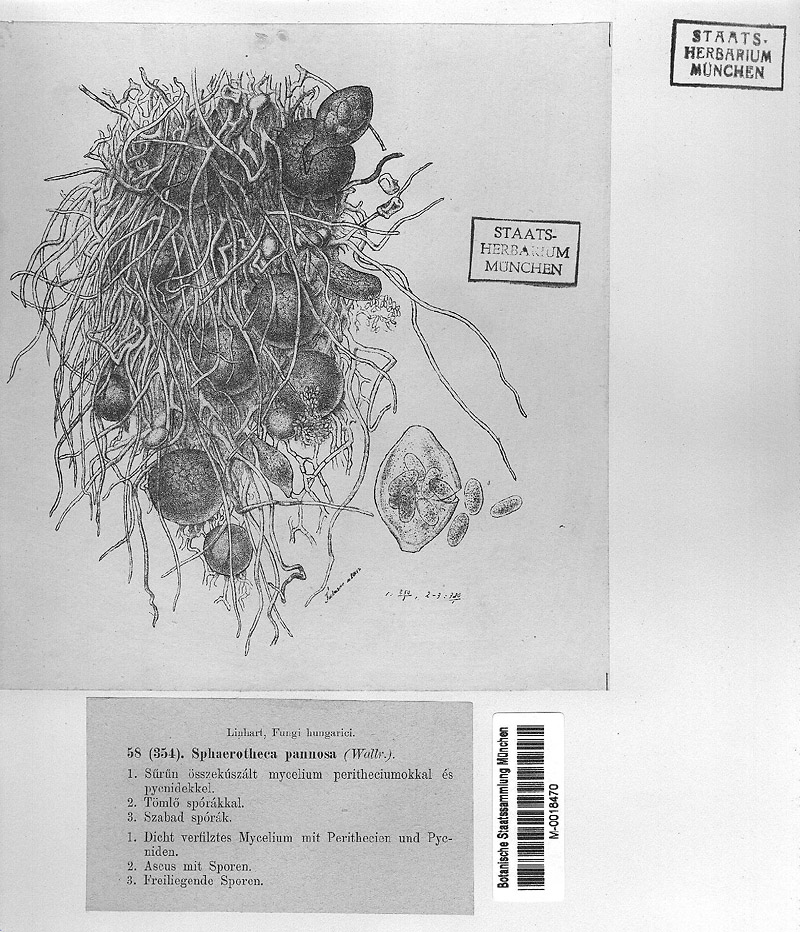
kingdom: Fungi
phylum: Ascomycota
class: Leotiomycetes
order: Helotiales
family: Erysiphaceae
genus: Podosphaera
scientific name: Podosphaera pannosa
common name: Rose mildew
